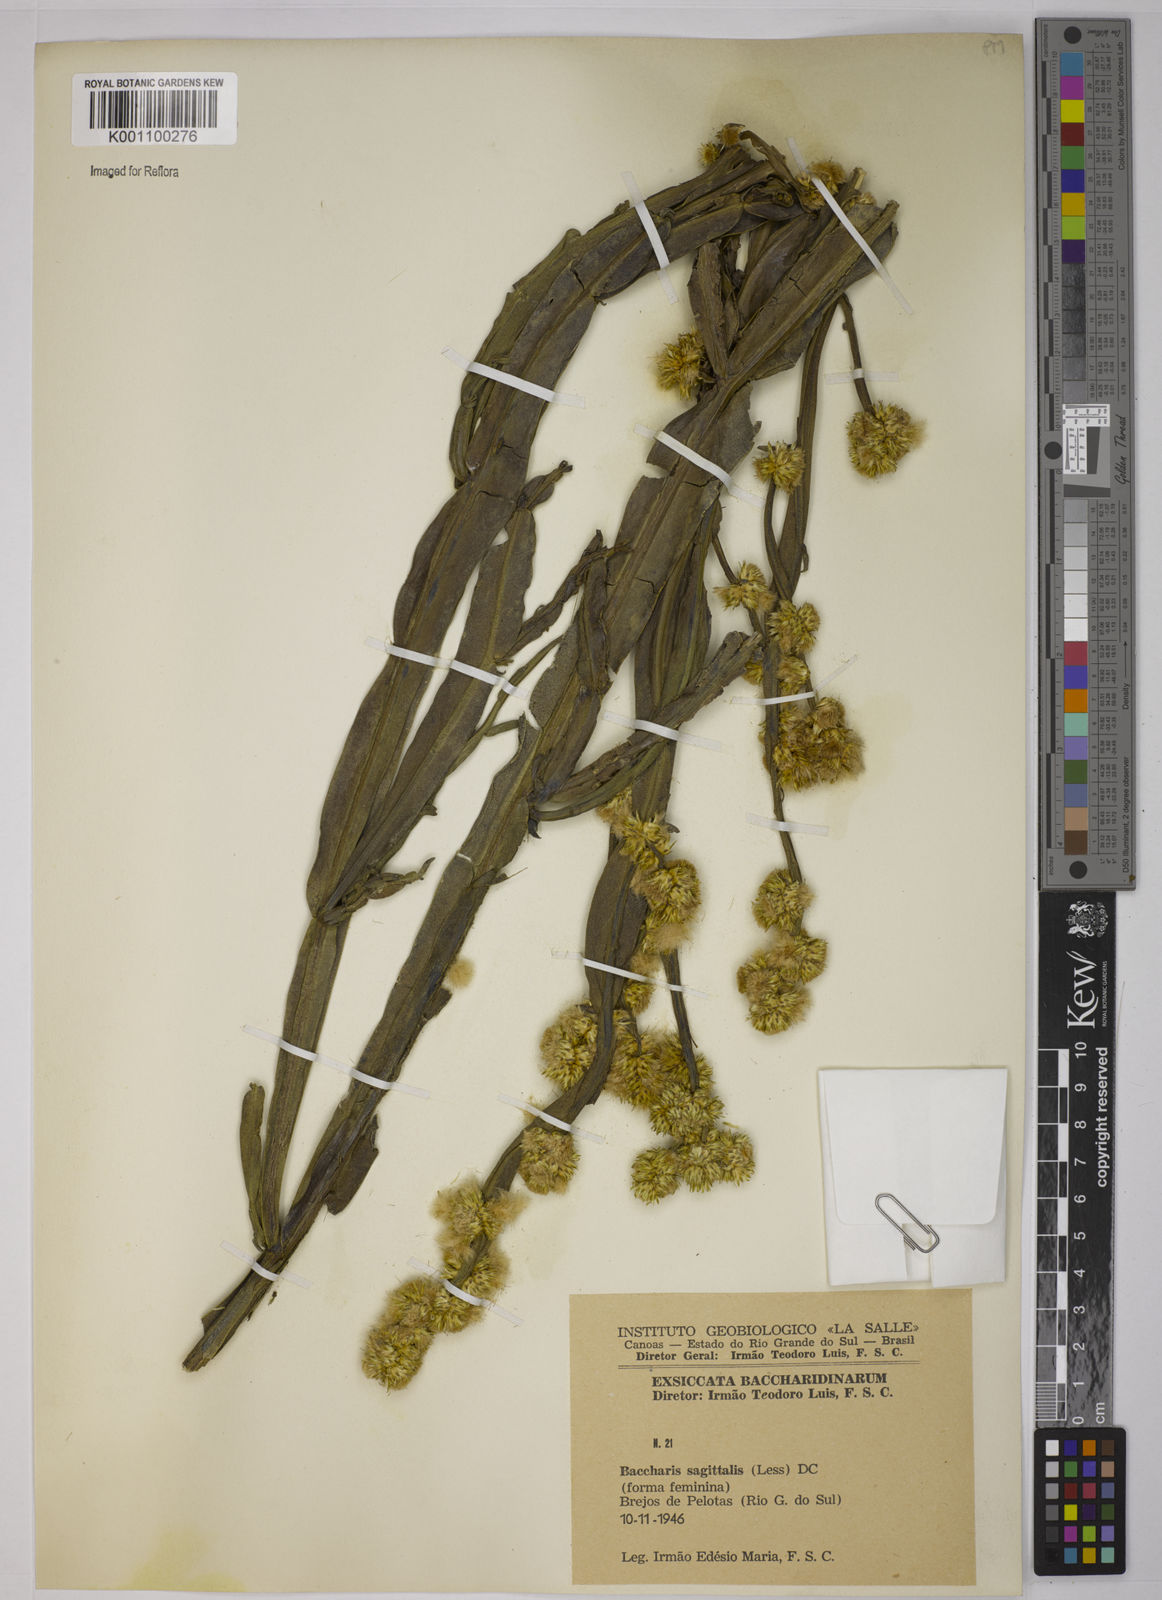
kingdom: Plantae
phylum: Tracheophyta
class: Magnoliopsida
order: Asterales
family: Asteraceae
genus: Baccharis
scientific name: Baccharis sagittalis
